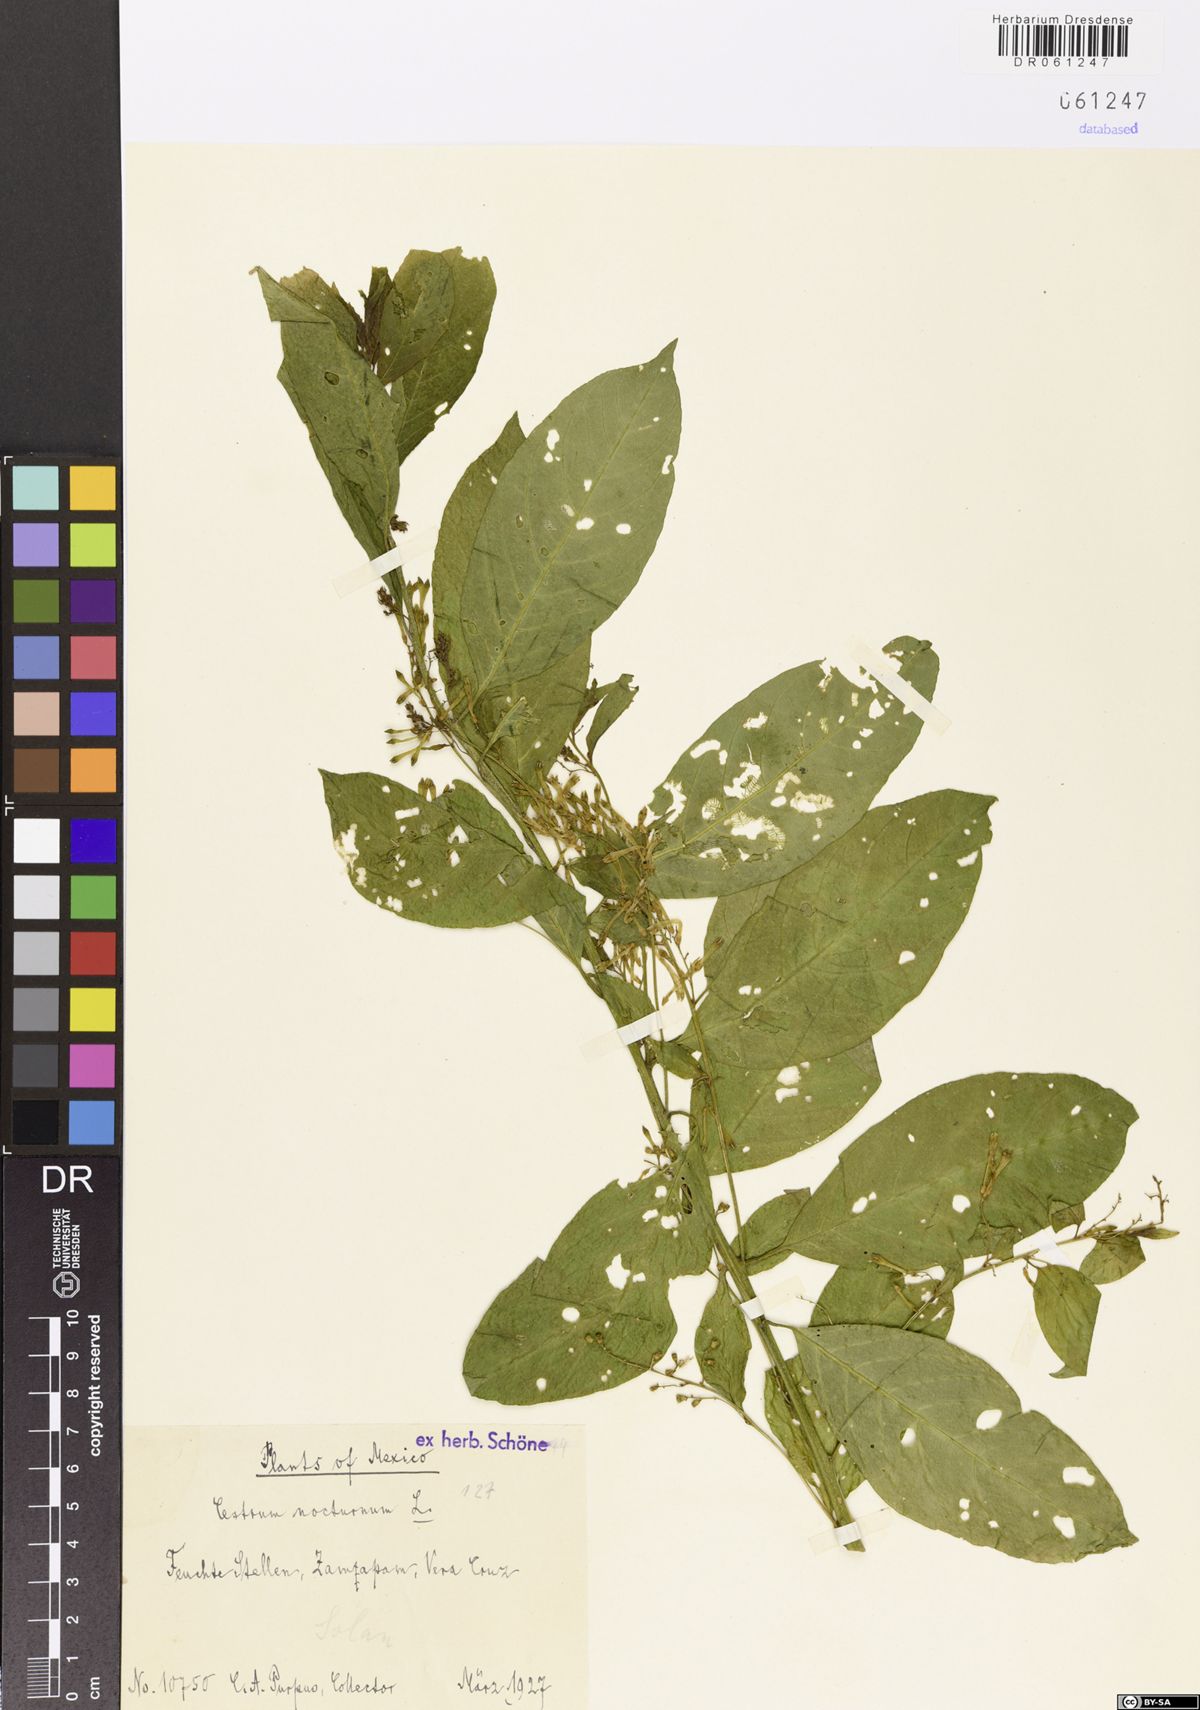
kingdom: Plantae
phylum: Tracheophyta
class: Magnoliopsida
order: Solanales
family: Solanaceae
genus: Cestrum
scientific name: Cestrum nocturnum
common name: Night jessamine
